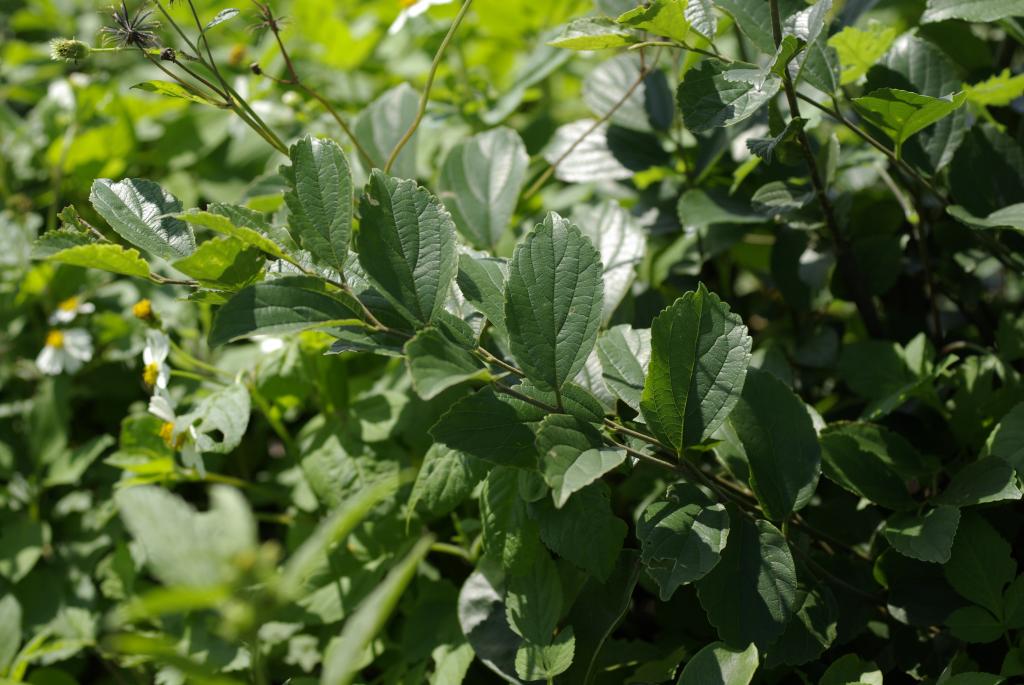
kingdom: Plantae
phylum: Tracheophyta
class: Magnoliopsida
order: Rosales
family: Cannabaceae
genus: Celtis
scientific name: Celtis sinensis
